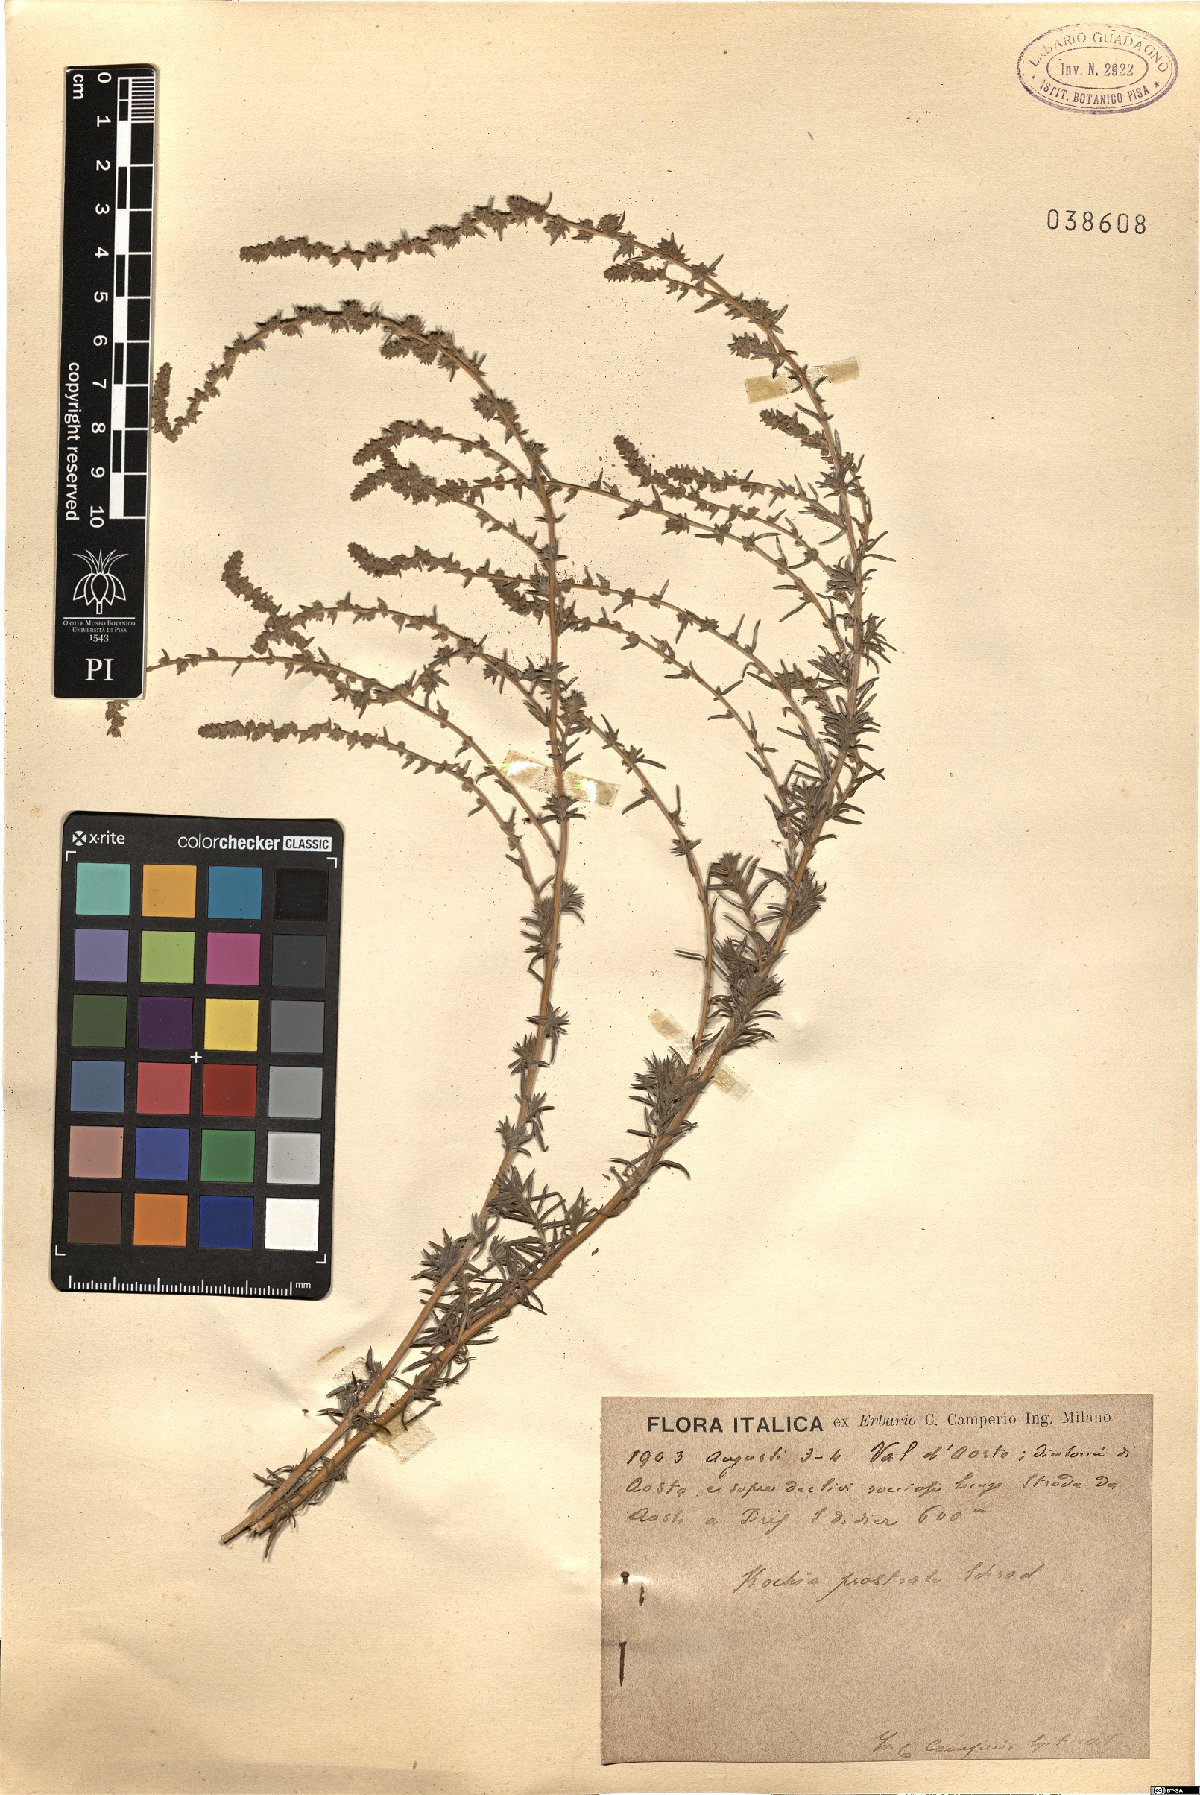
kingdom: Plantae
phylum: Tracheophyta
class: Magnoliopsida
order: Caryophyllales
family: Amaranthaceae
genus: Bassia
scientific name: Bassia prostrata
